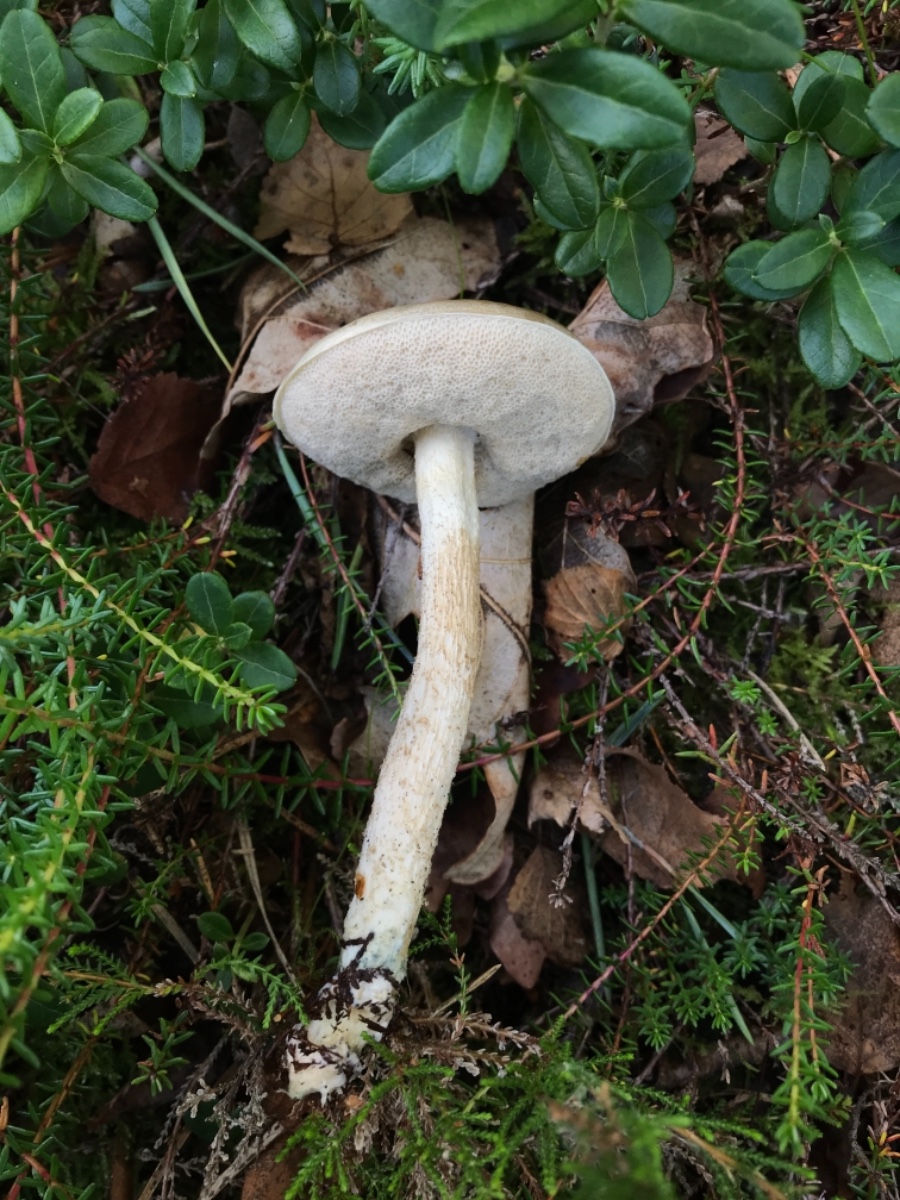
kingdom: Fungi
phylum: Basidiomycota
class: Agaricomycetes
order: Boletales
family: Boletaceae
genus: Leccinum
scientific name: Leccinum scabrum
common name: hvid skælrørhat
